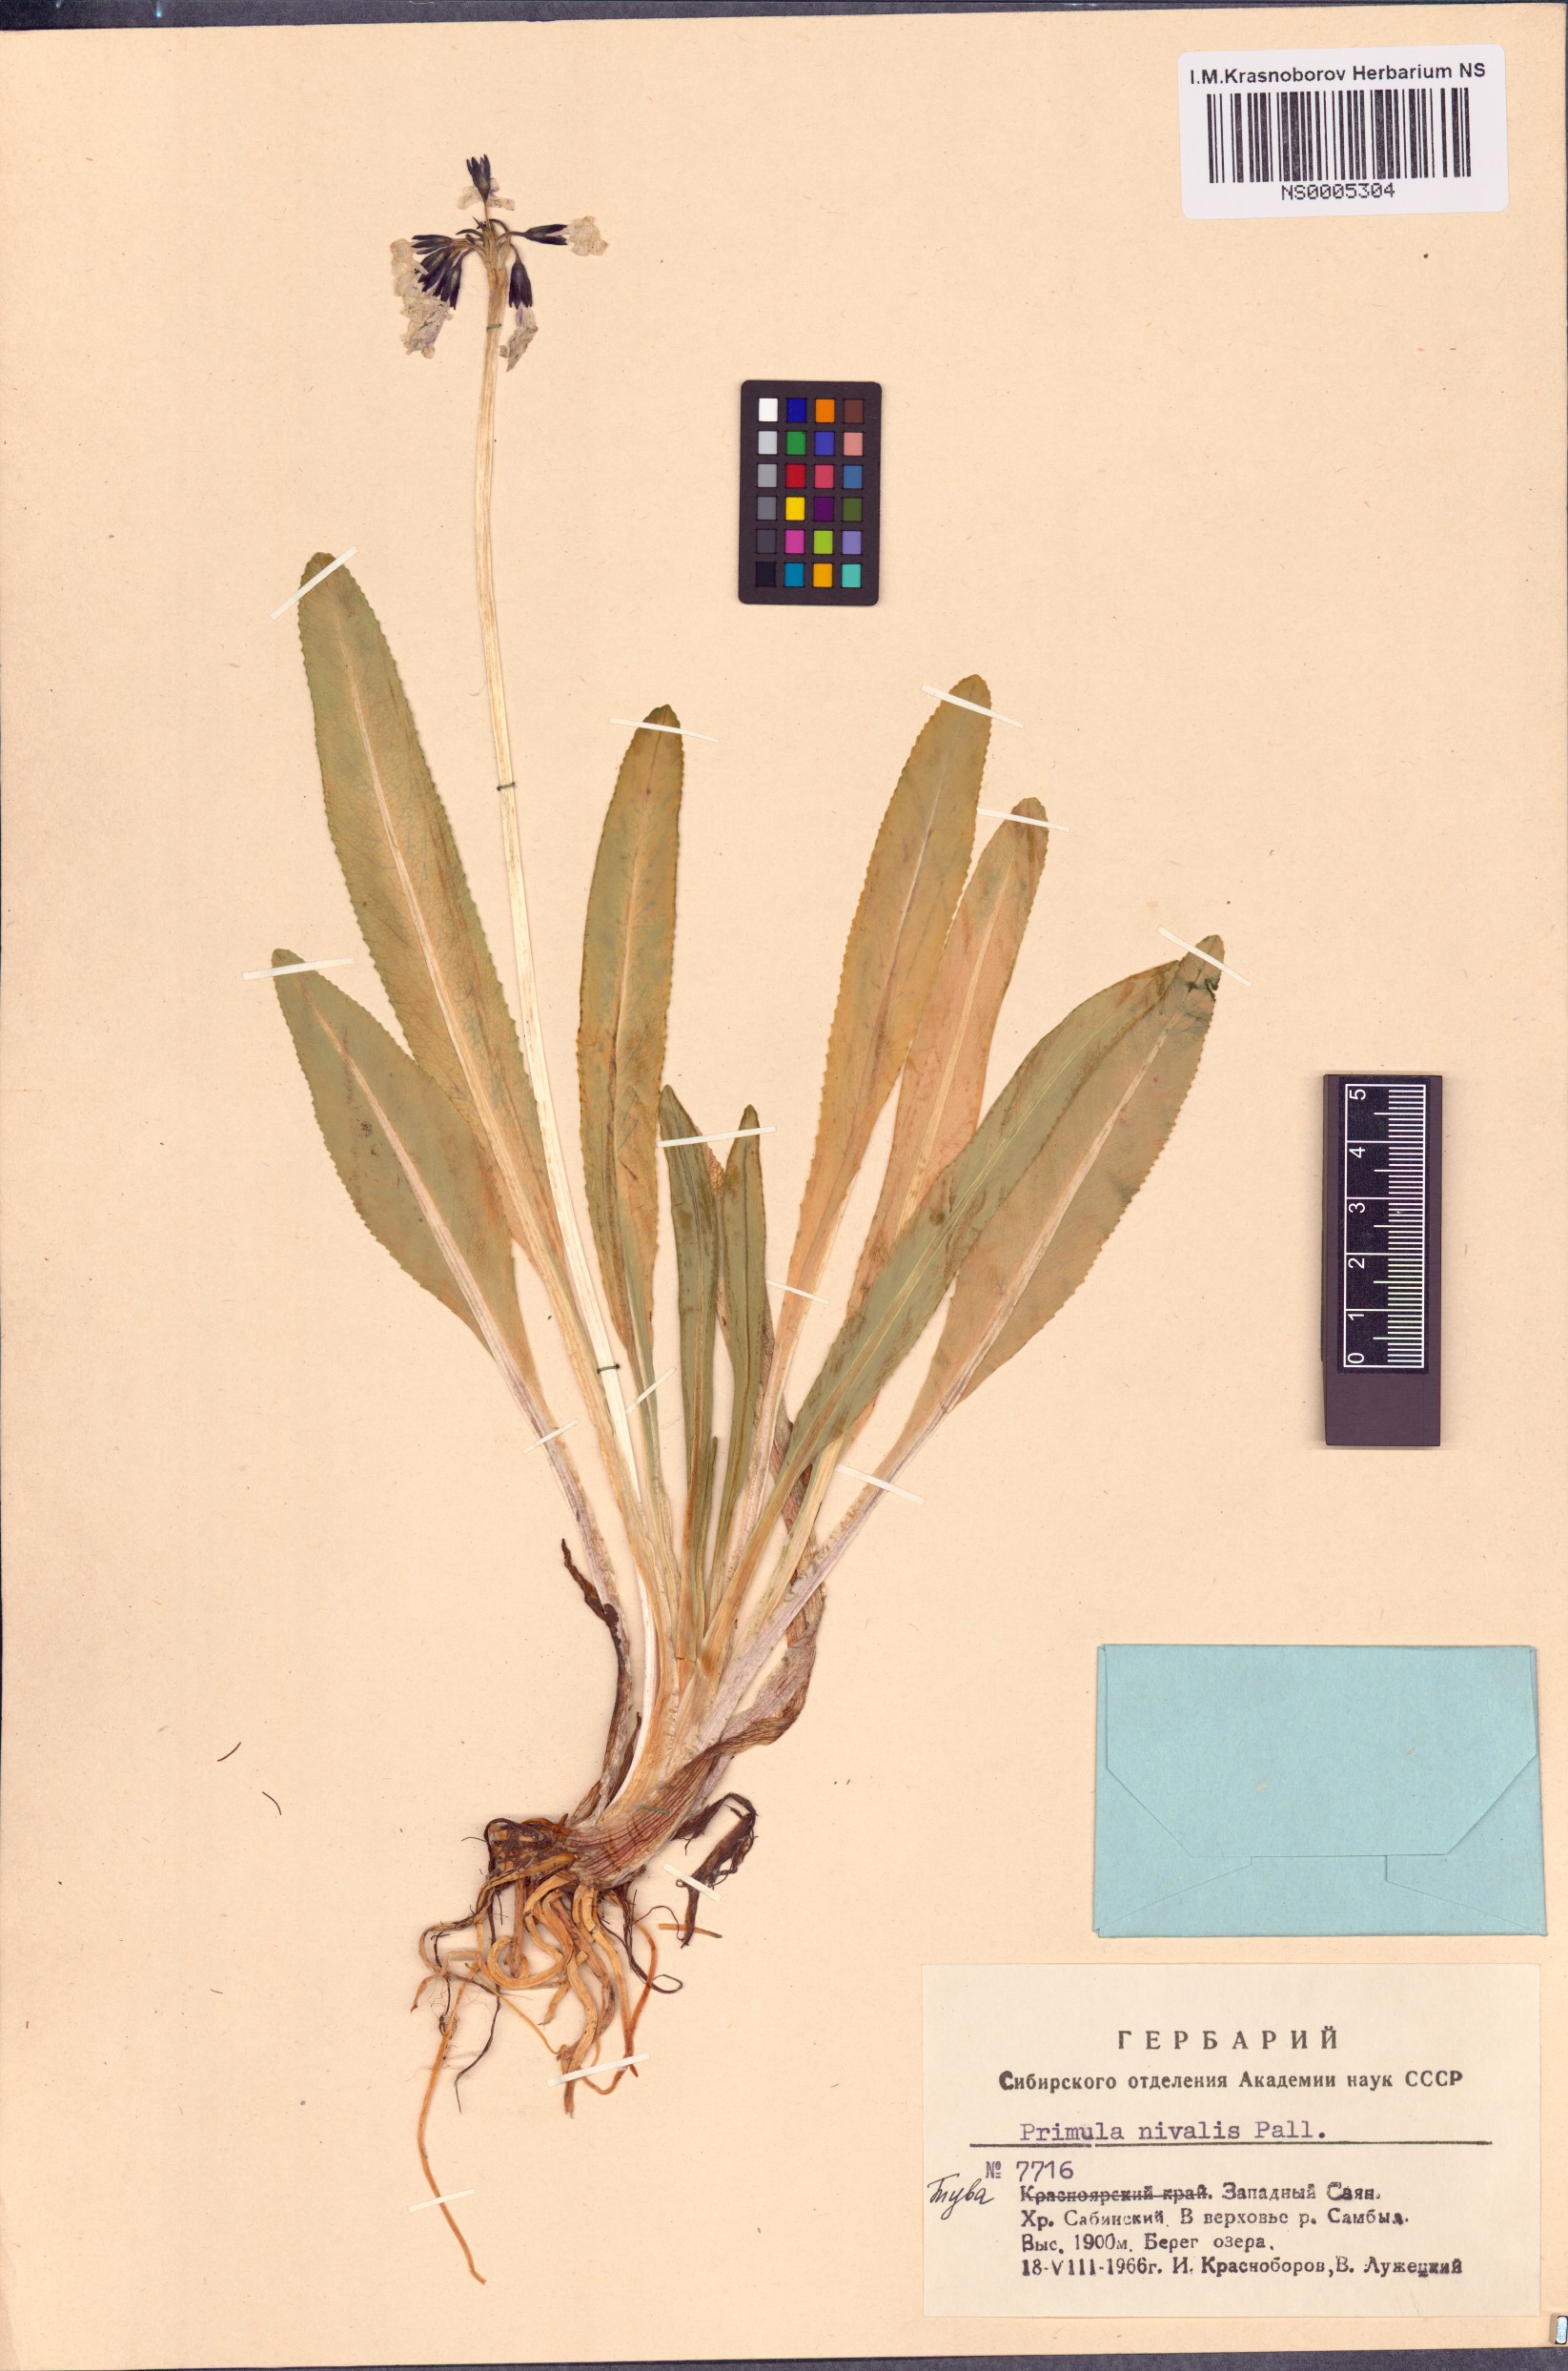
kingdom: Plantae
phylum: Tracheophyta
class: Magnoliopsida
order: Ericales
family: Primulaceae
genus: Primula
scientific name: Primula nivalis
